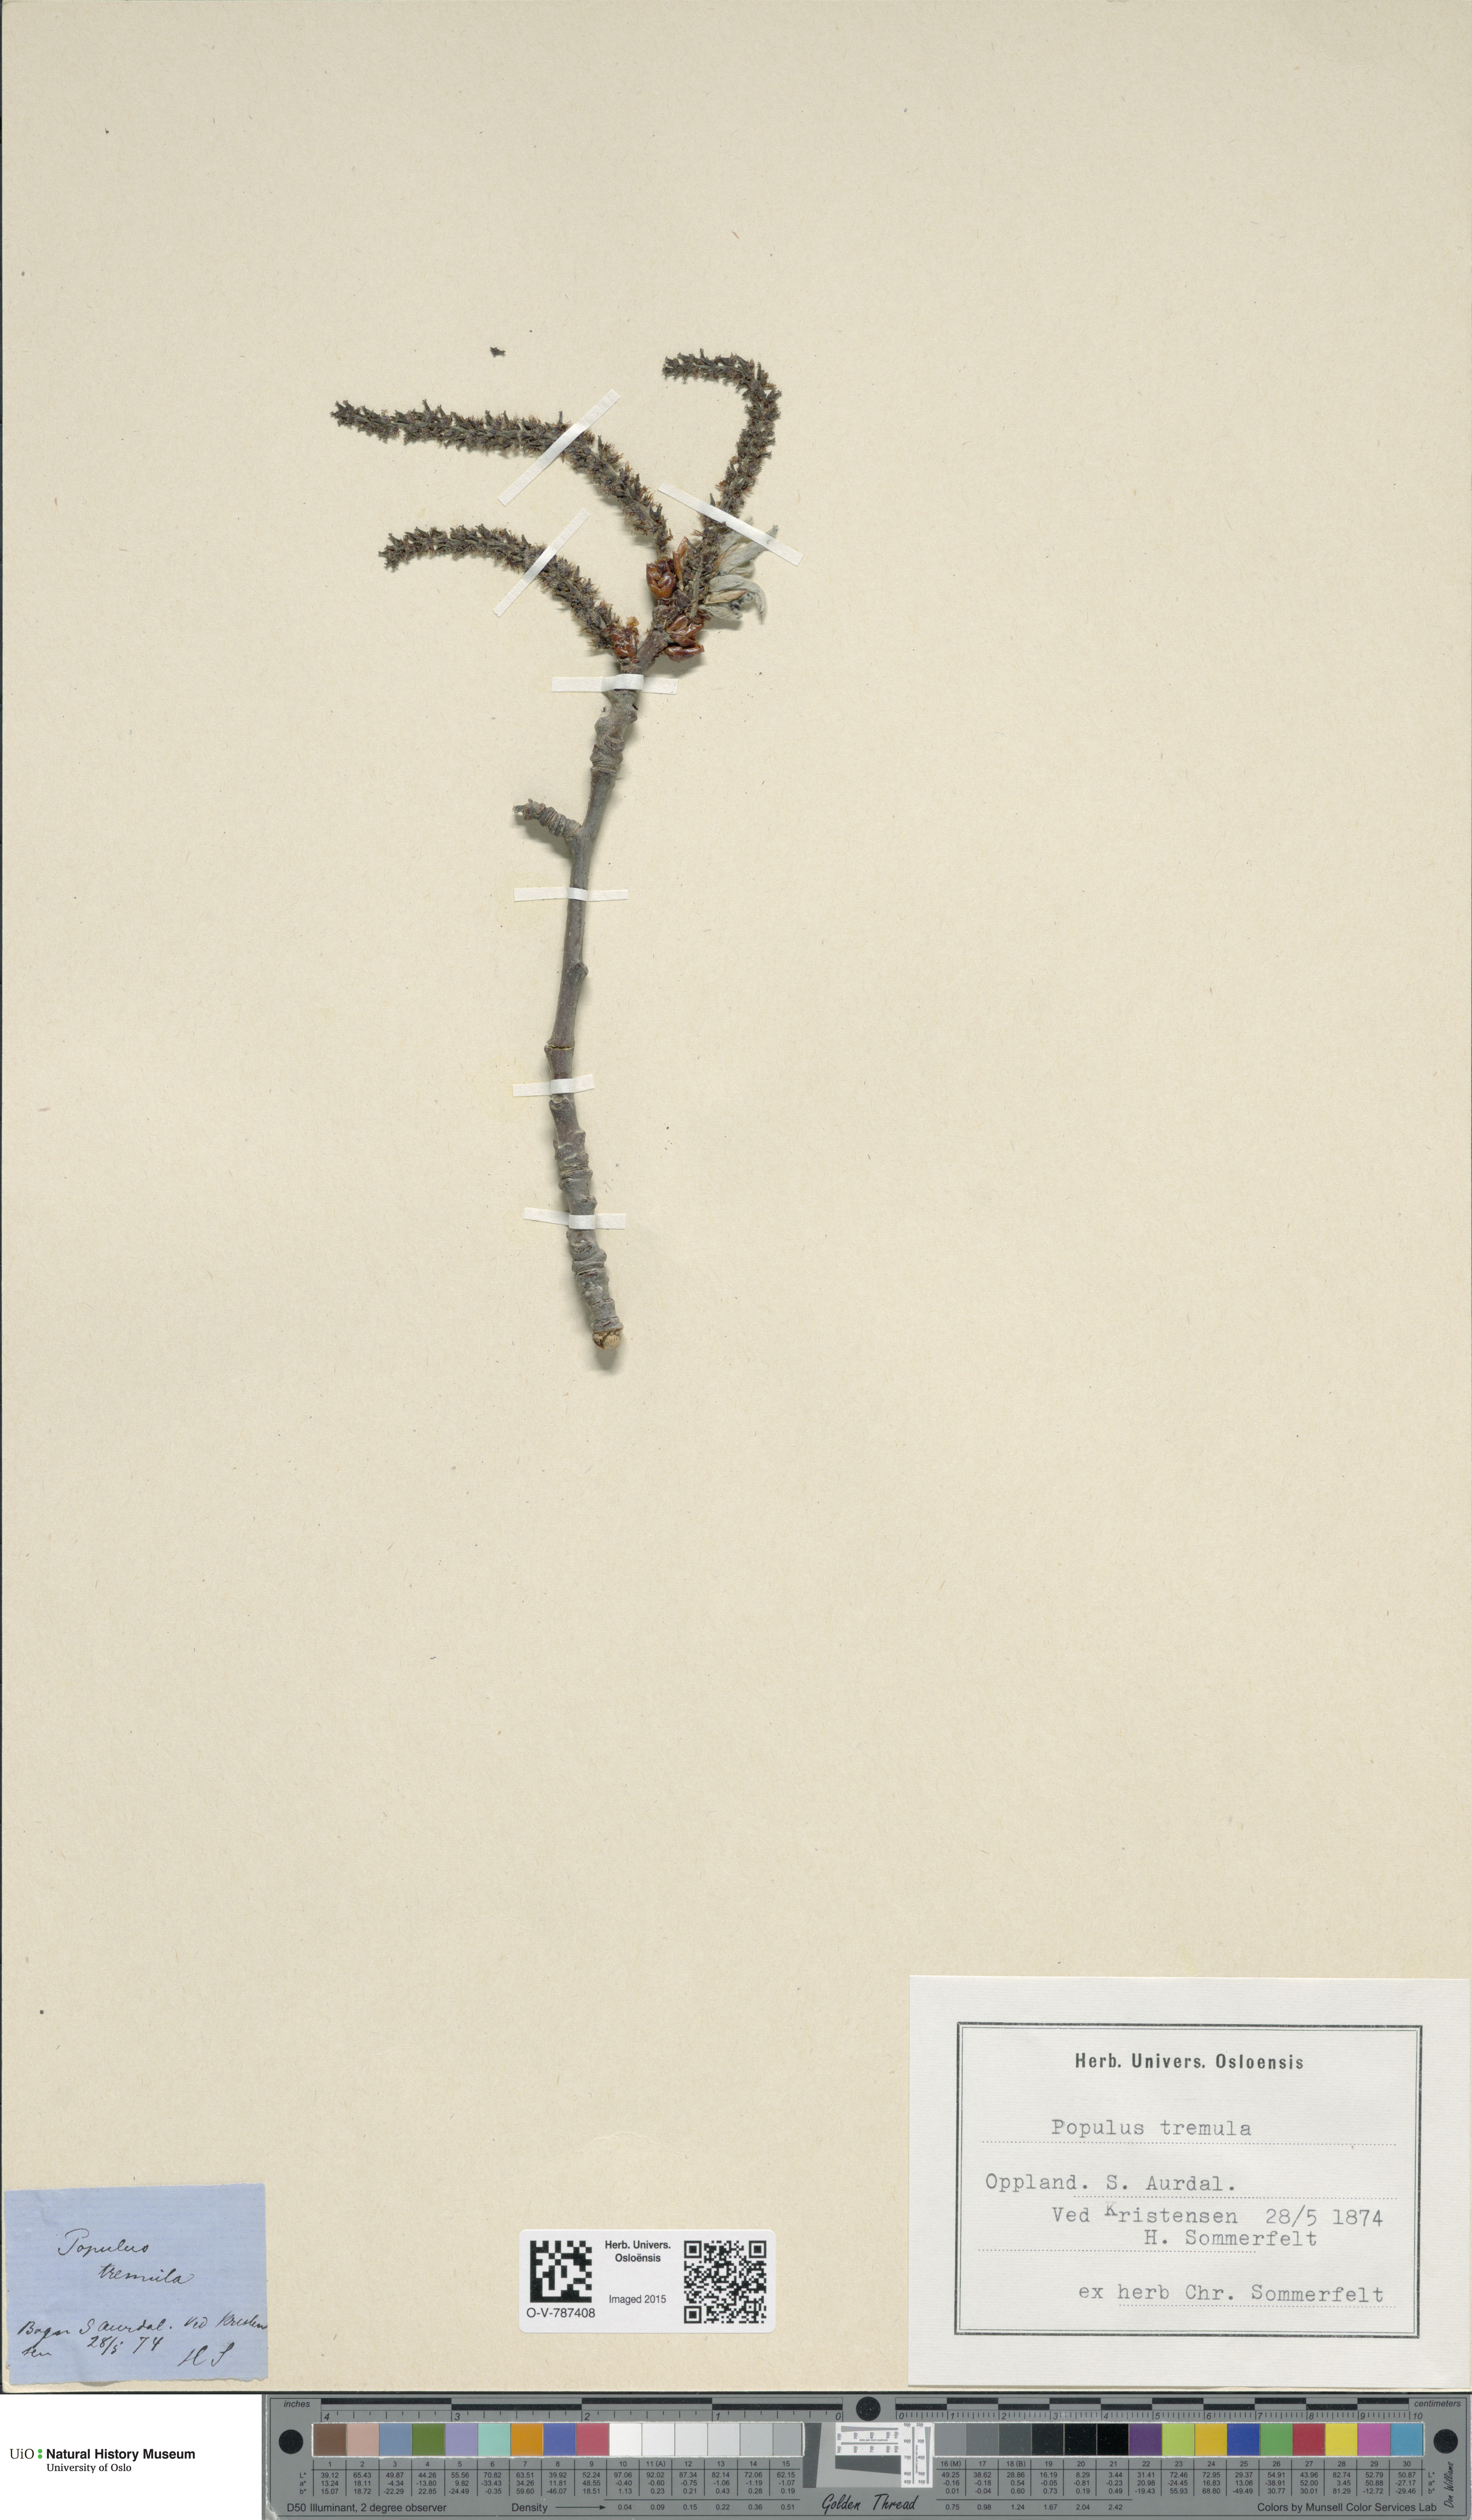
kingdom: Plantae
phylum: Tracheophyta
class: Magnoliopsida
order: Malpighiales
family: Salicaceae
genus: Populus
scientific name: Populus tremula
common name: European aspen
